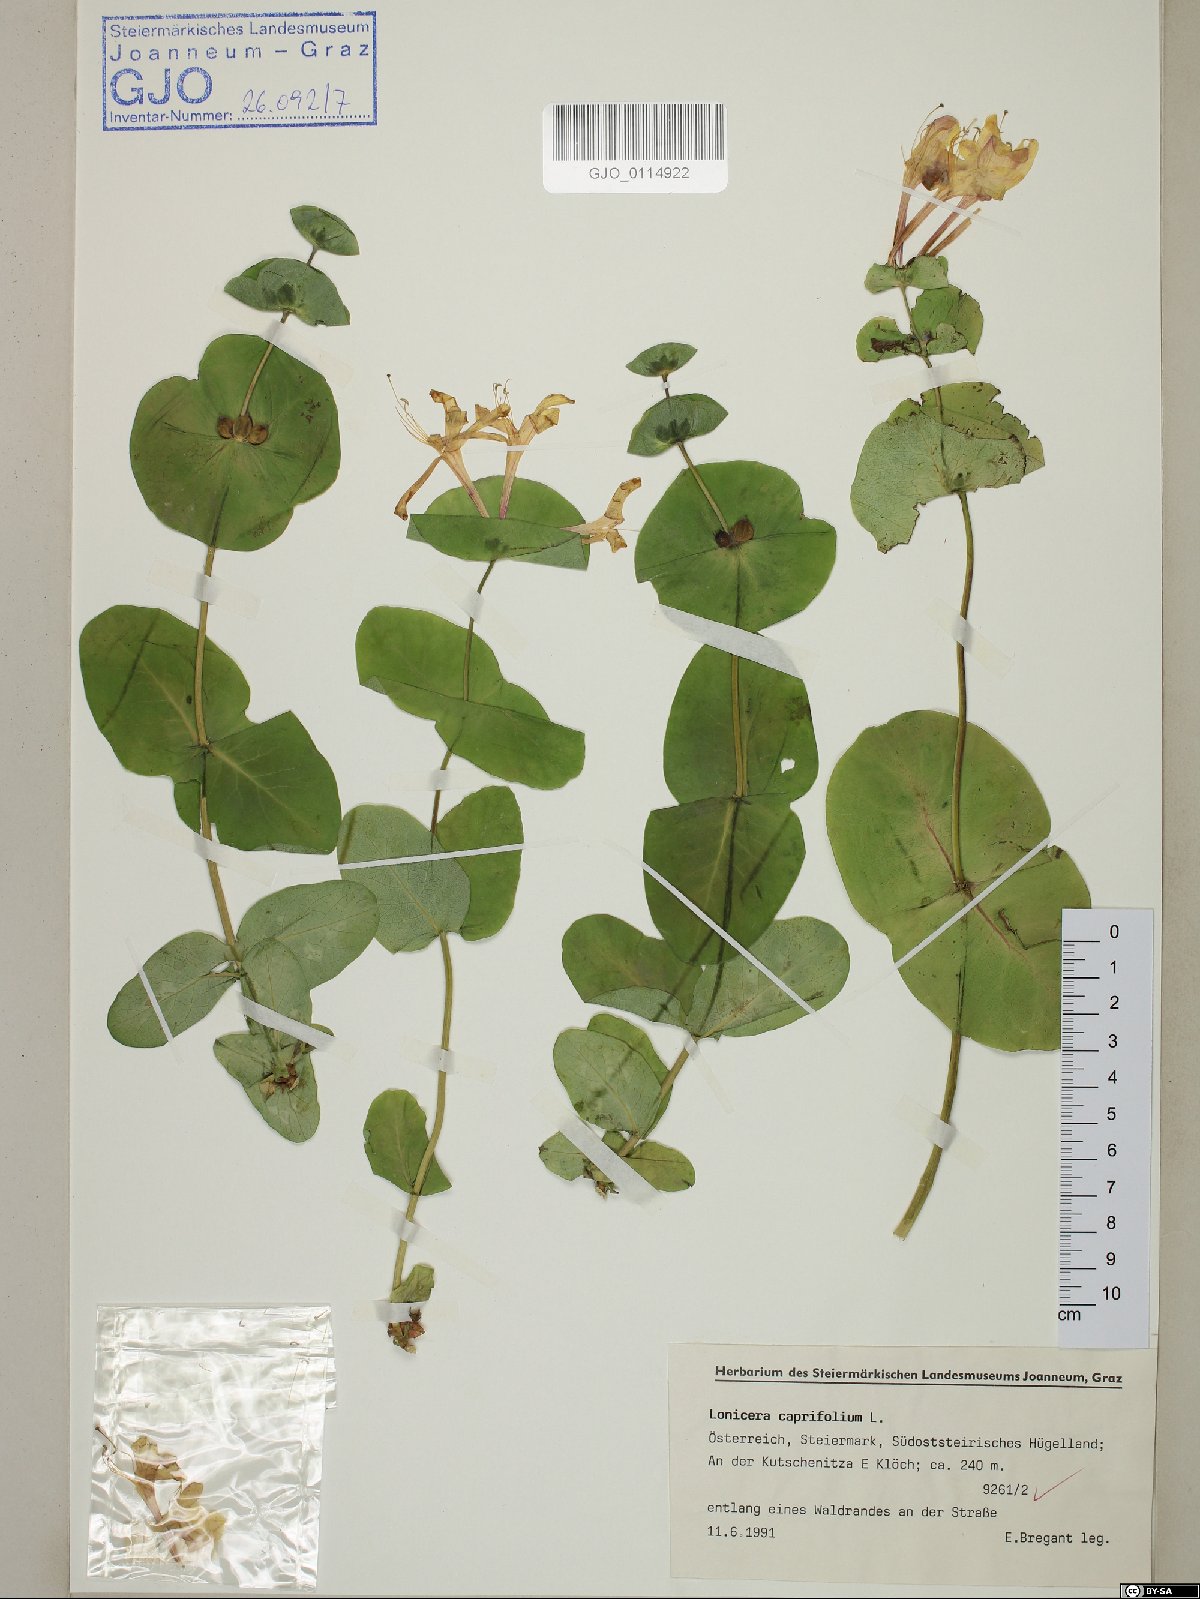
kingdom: Plantae
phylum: Tracheophyta
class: Magnoliopsida
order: Dipsacales
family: Caprifoliaceae
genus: Lonicera
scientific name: Lonicera caprifolium
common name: Perfoliate honeysuckle
